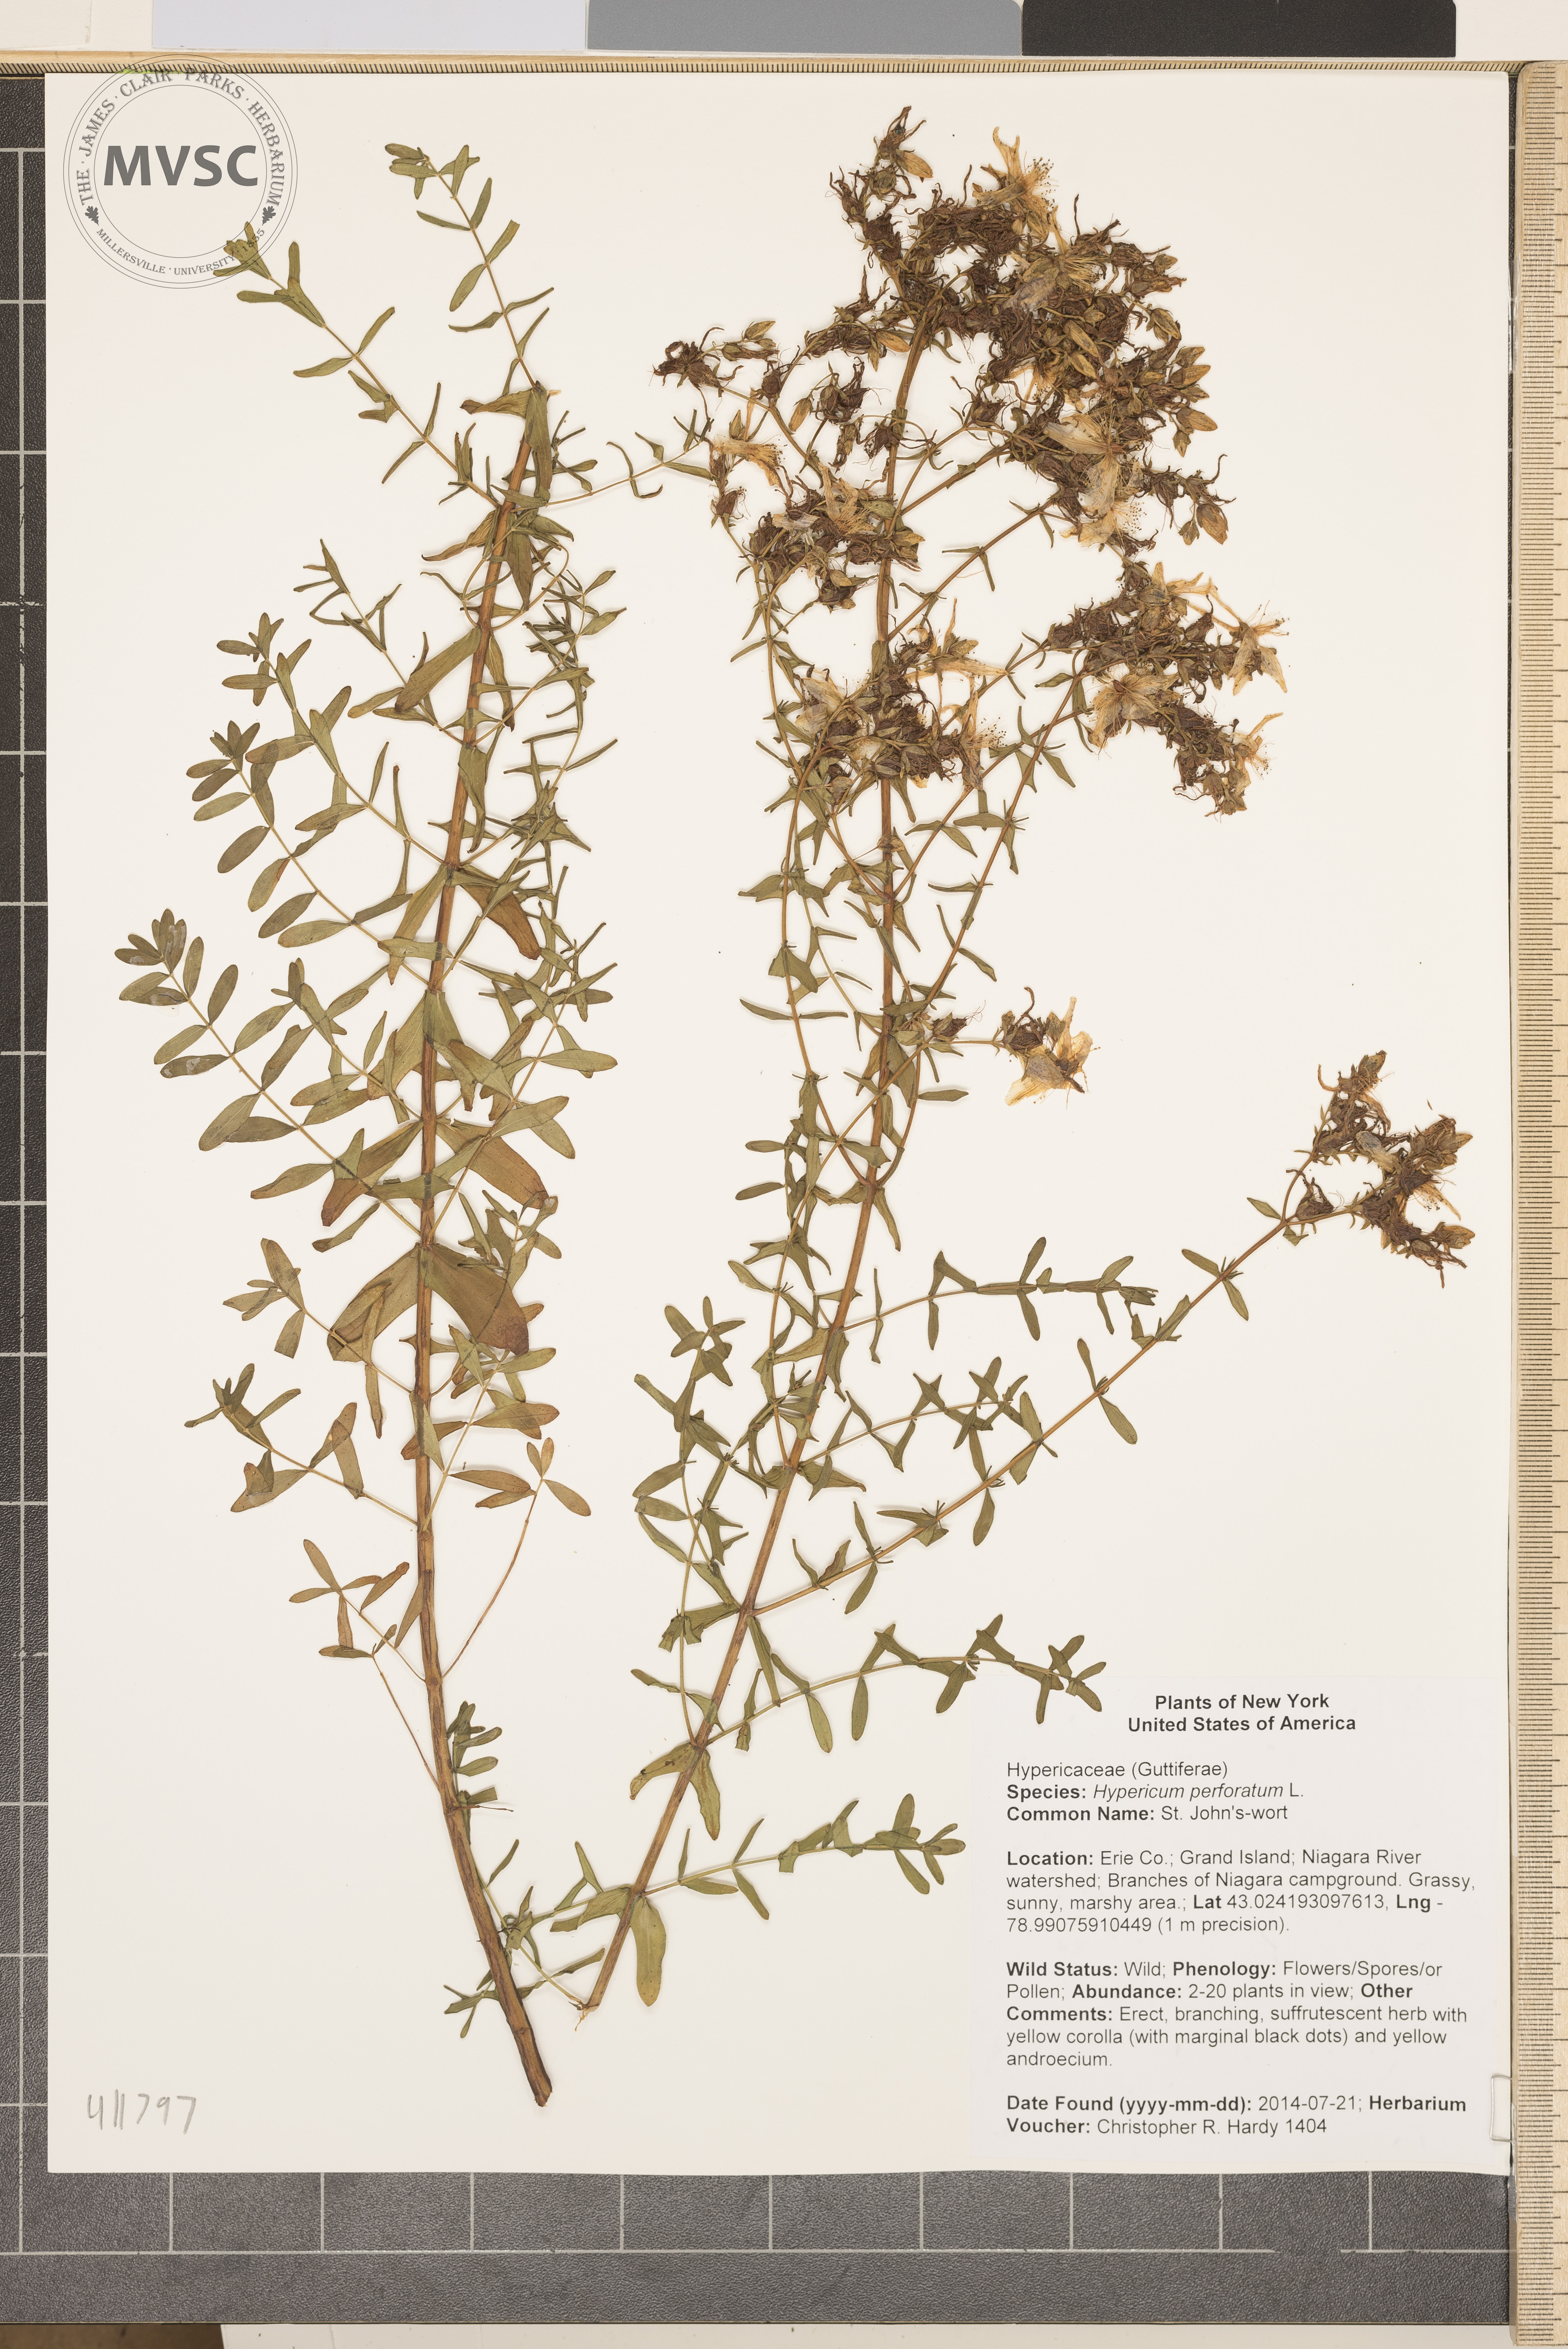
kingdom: Plantae
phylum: Tracheophyta
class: Magnoliopsida
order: Malpighiales
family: Hypericaceae
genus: Hypericum
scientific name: Hypericum perforatum
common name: St. John's-wort
